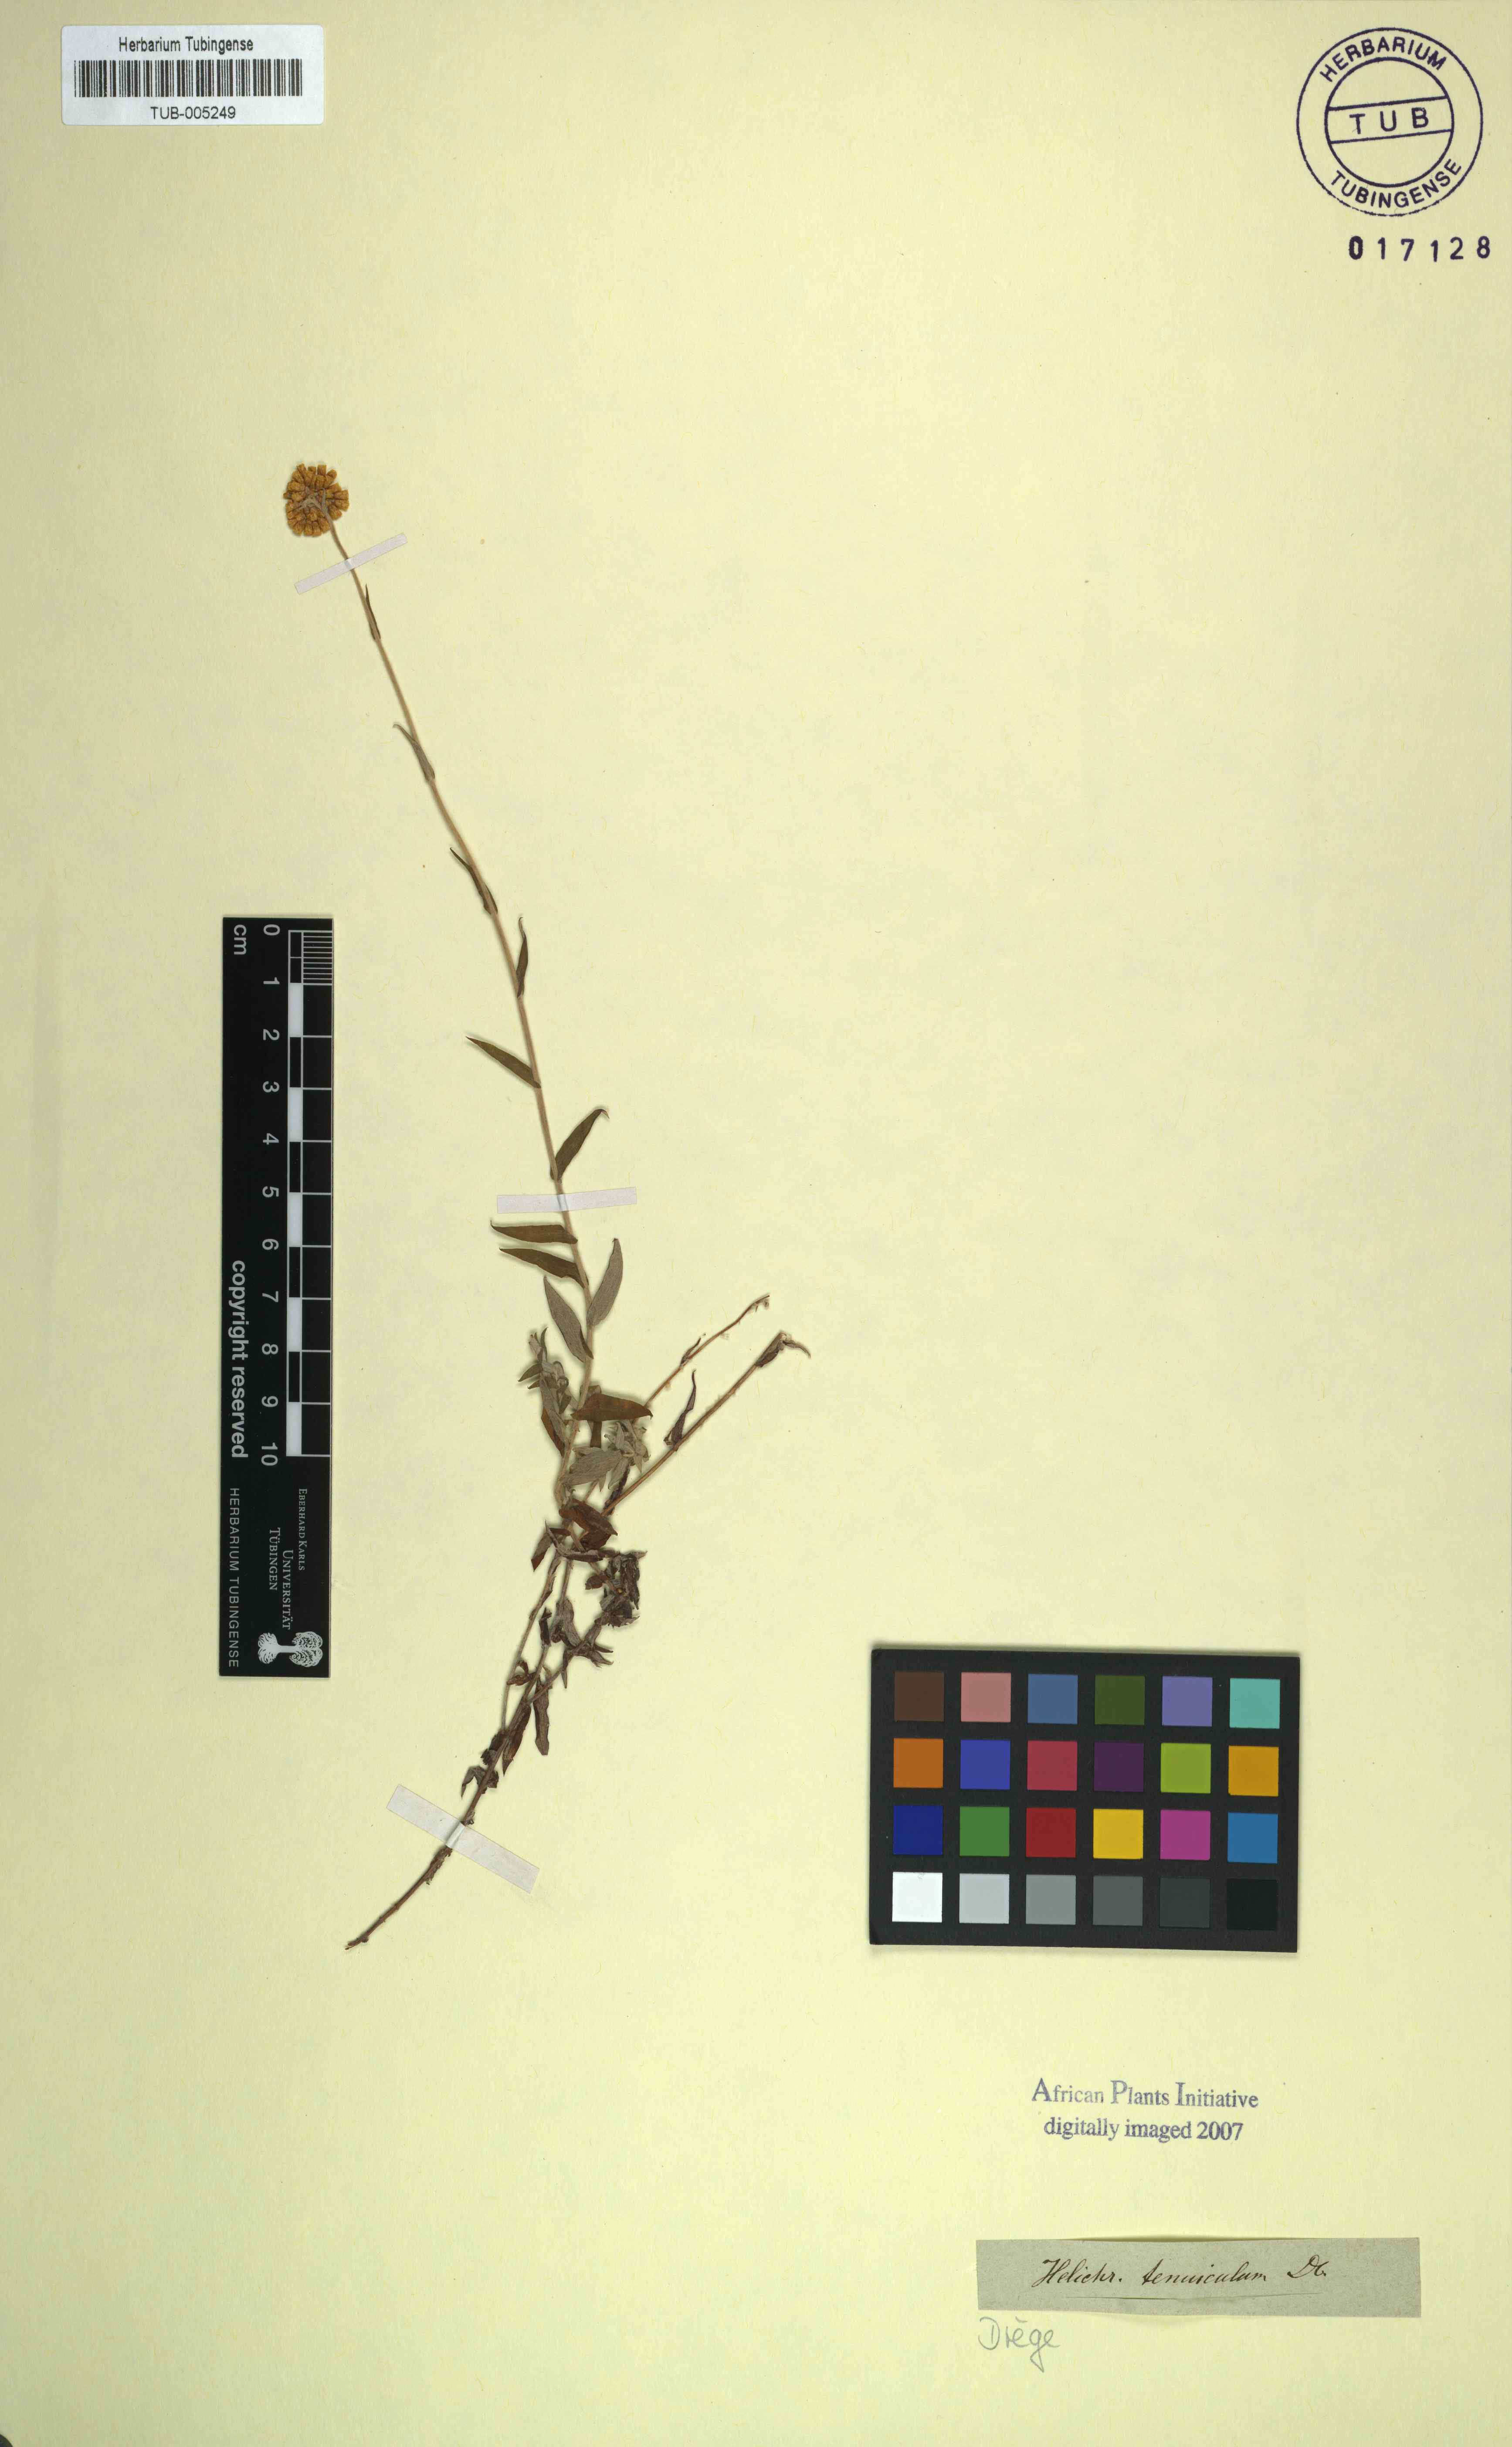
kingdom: Plantae
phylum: Tracheophyta
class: Magnoliopsida
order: Asterales
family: Asteraceae
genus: Helichrysum
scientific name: Helichrysum tenuiculum
